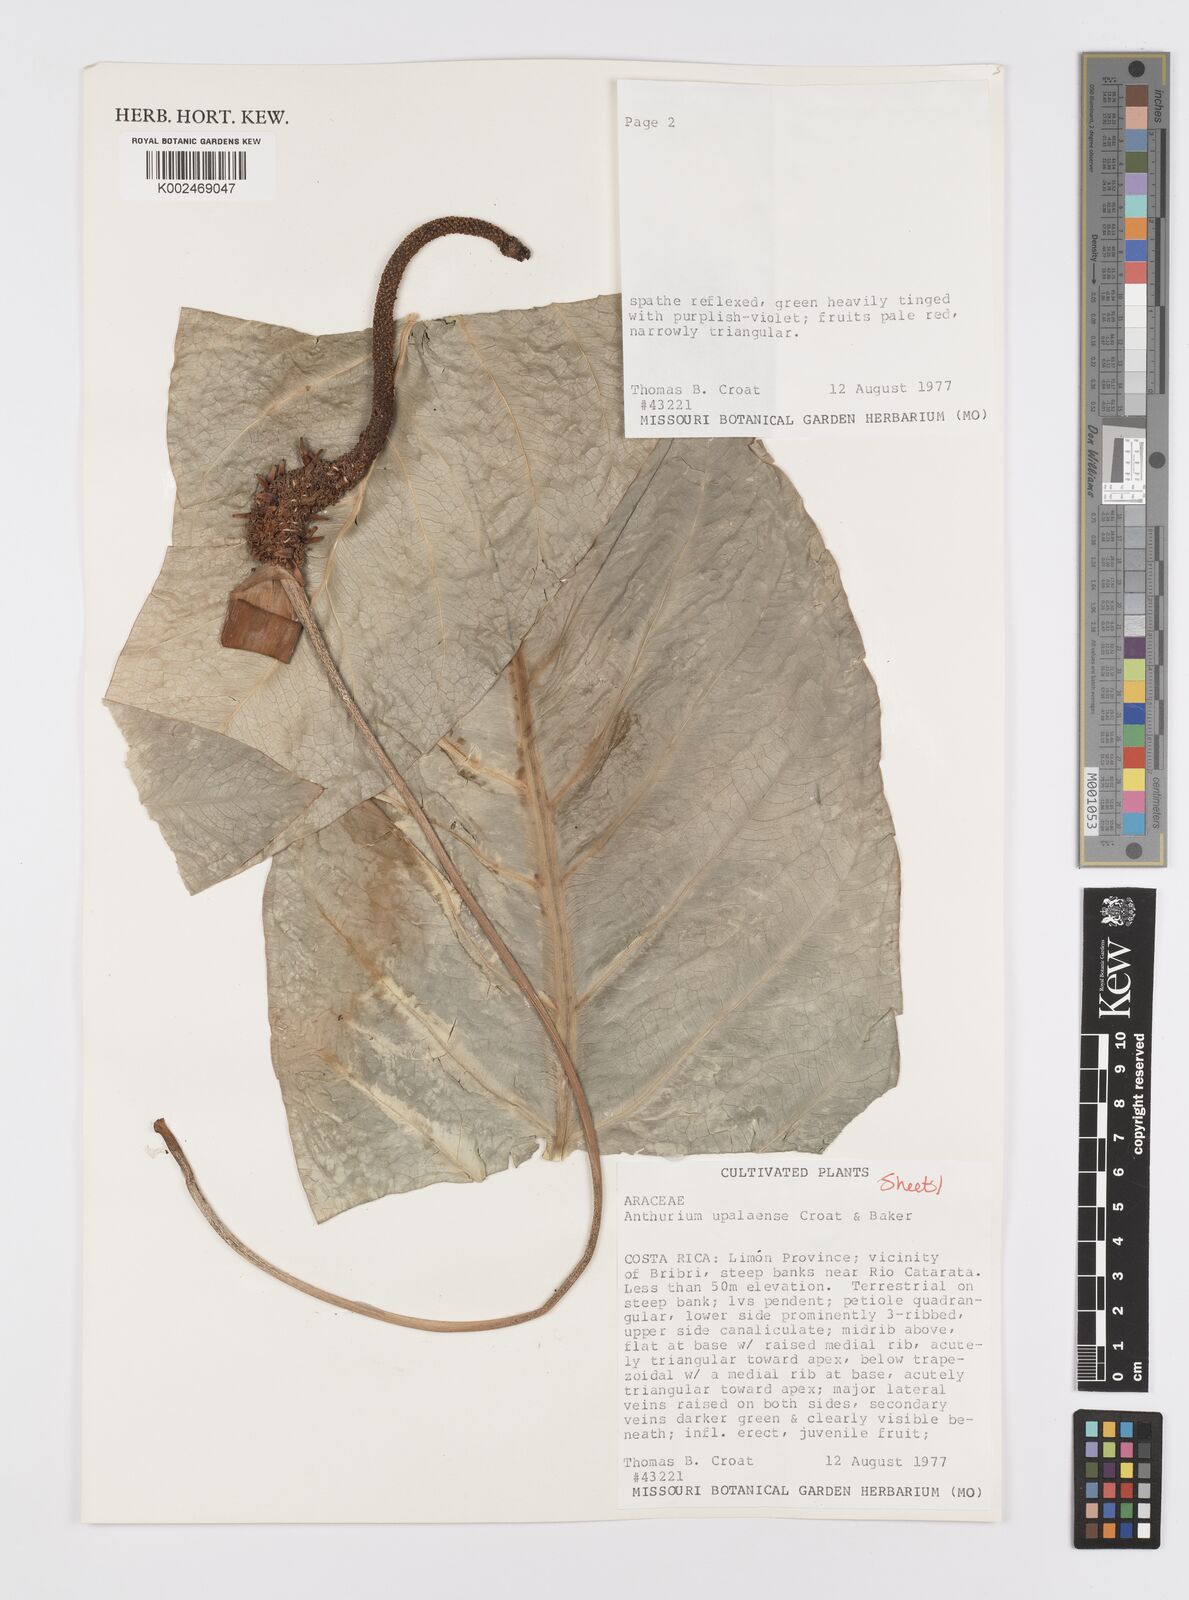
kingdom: Plantae
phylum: Tracheophyta
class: Liliopsida
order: Alismatales
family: Araceae
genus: Anthurium
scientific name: Anthurium upalaense
